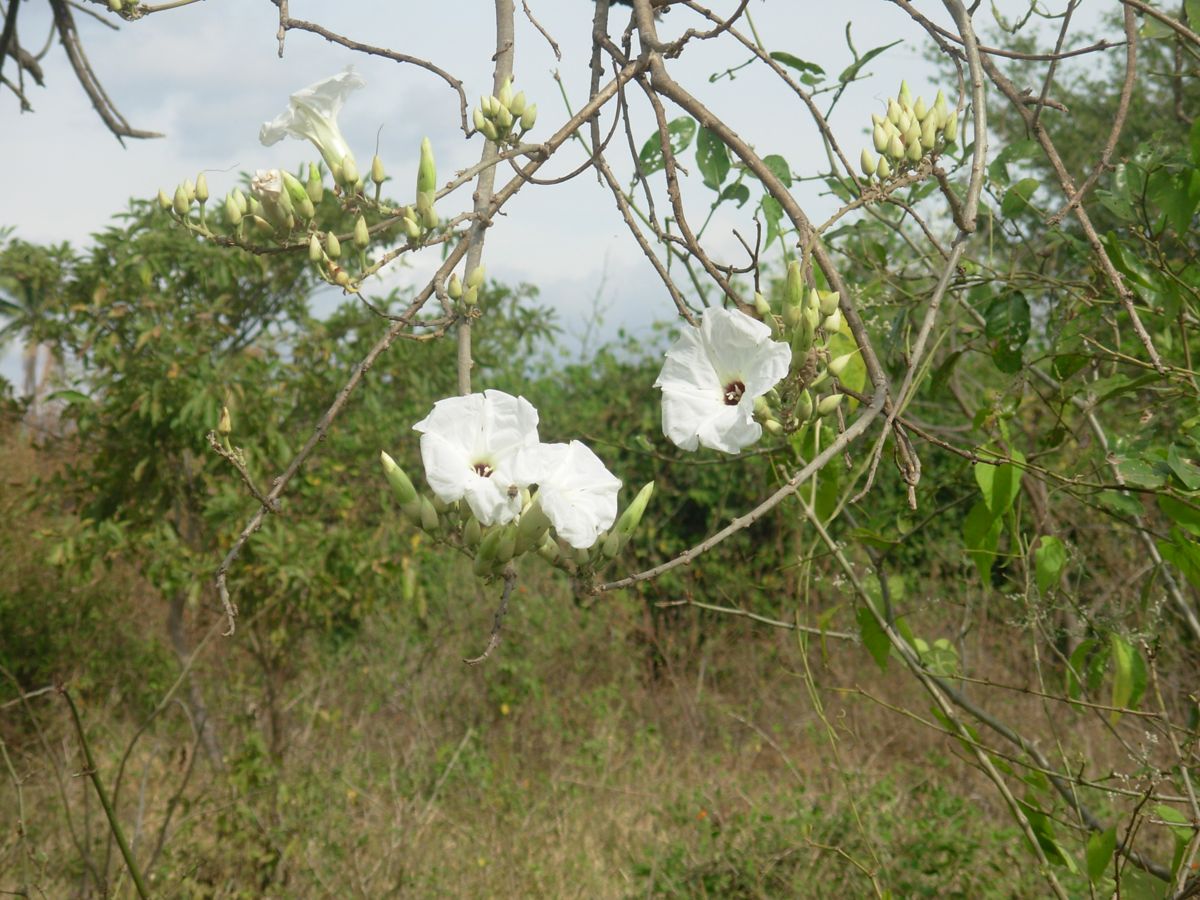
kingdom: Plantae
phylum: Tracheophyta
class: Magnoliopsida
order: Solanales
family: Convolvulaceae
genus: Ipomoea
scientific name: Ipomoea wolcottiana
